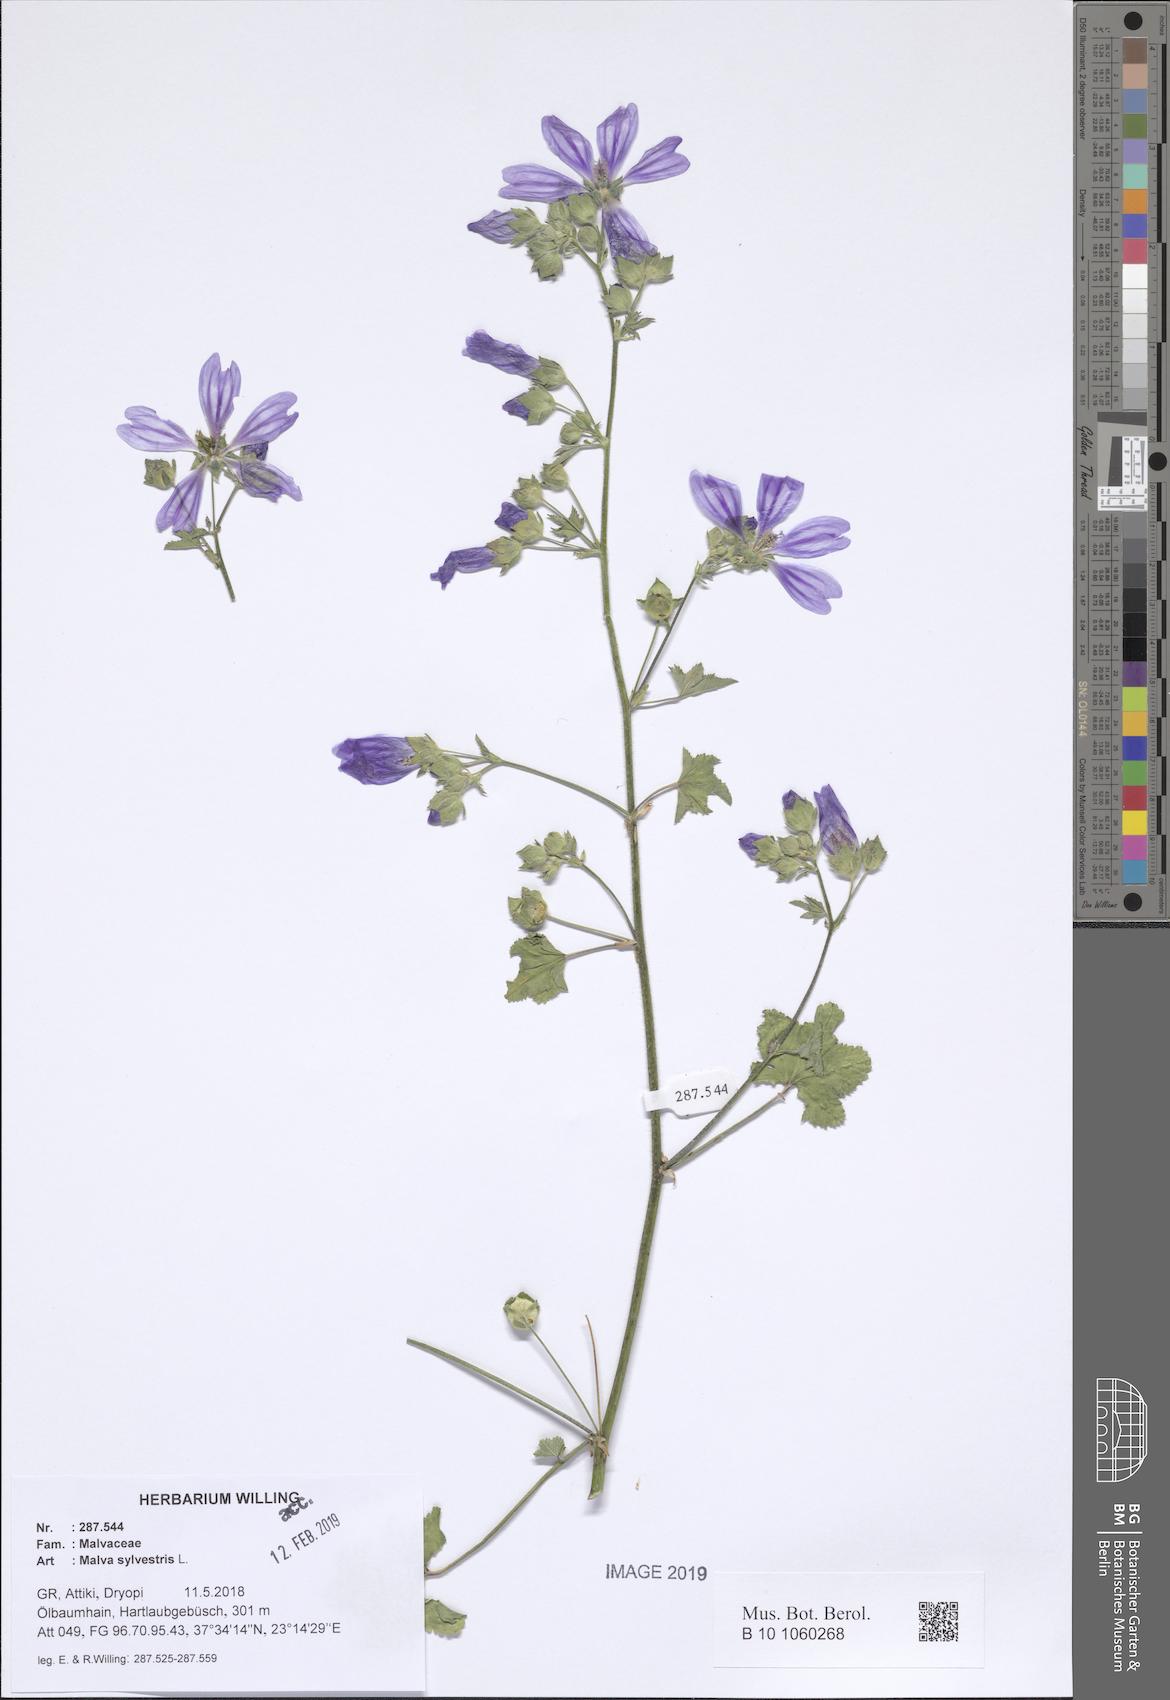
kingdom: Plantae
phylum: Tracheophyta
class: Magnoliopsida
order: Malvales
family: Malvaceae
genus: Malva
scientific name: Malva sylvestris
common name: Common mallow
